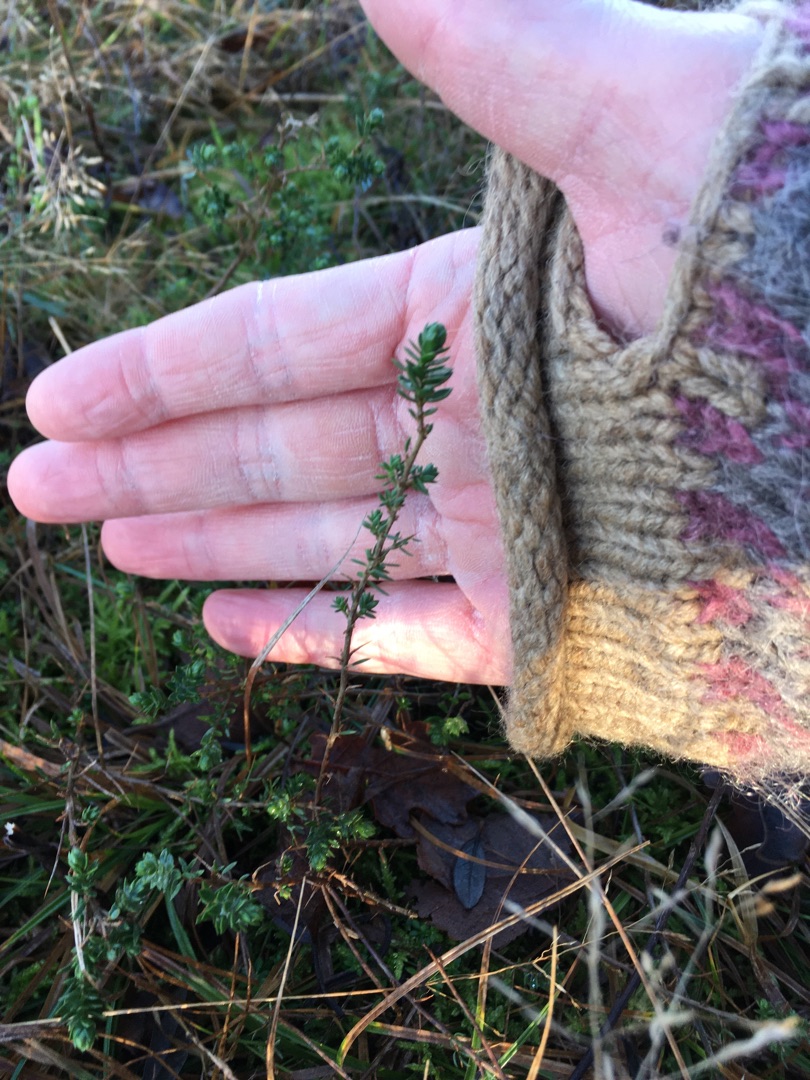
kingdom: Plantae
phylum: Tracheophyta
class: Magnoliopsida
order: Fabales
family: Fabaceae
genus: Genista
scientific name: Genista anglica
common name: Engelsk visse
